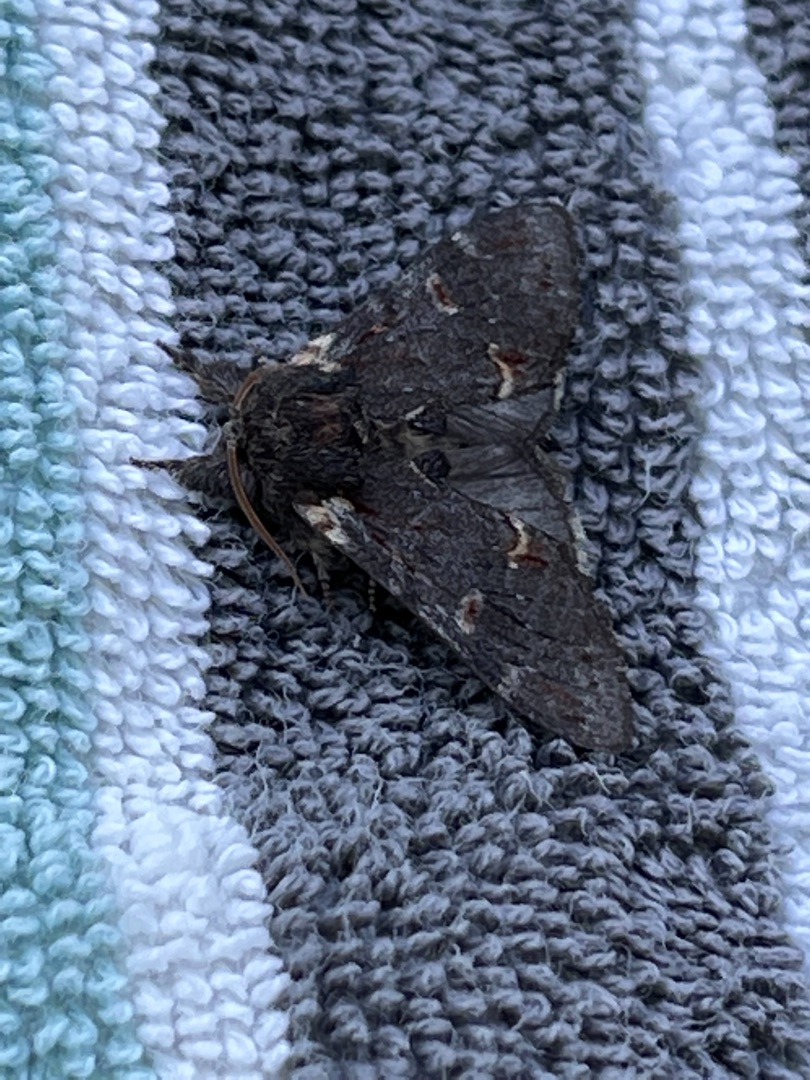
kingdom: Animalia
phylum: Arthropoda
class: Insecta
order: Lepidoptera
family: Notodontidae
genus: Notodonta
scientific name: Notodonta dromedarius
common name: Dromedarspinder
